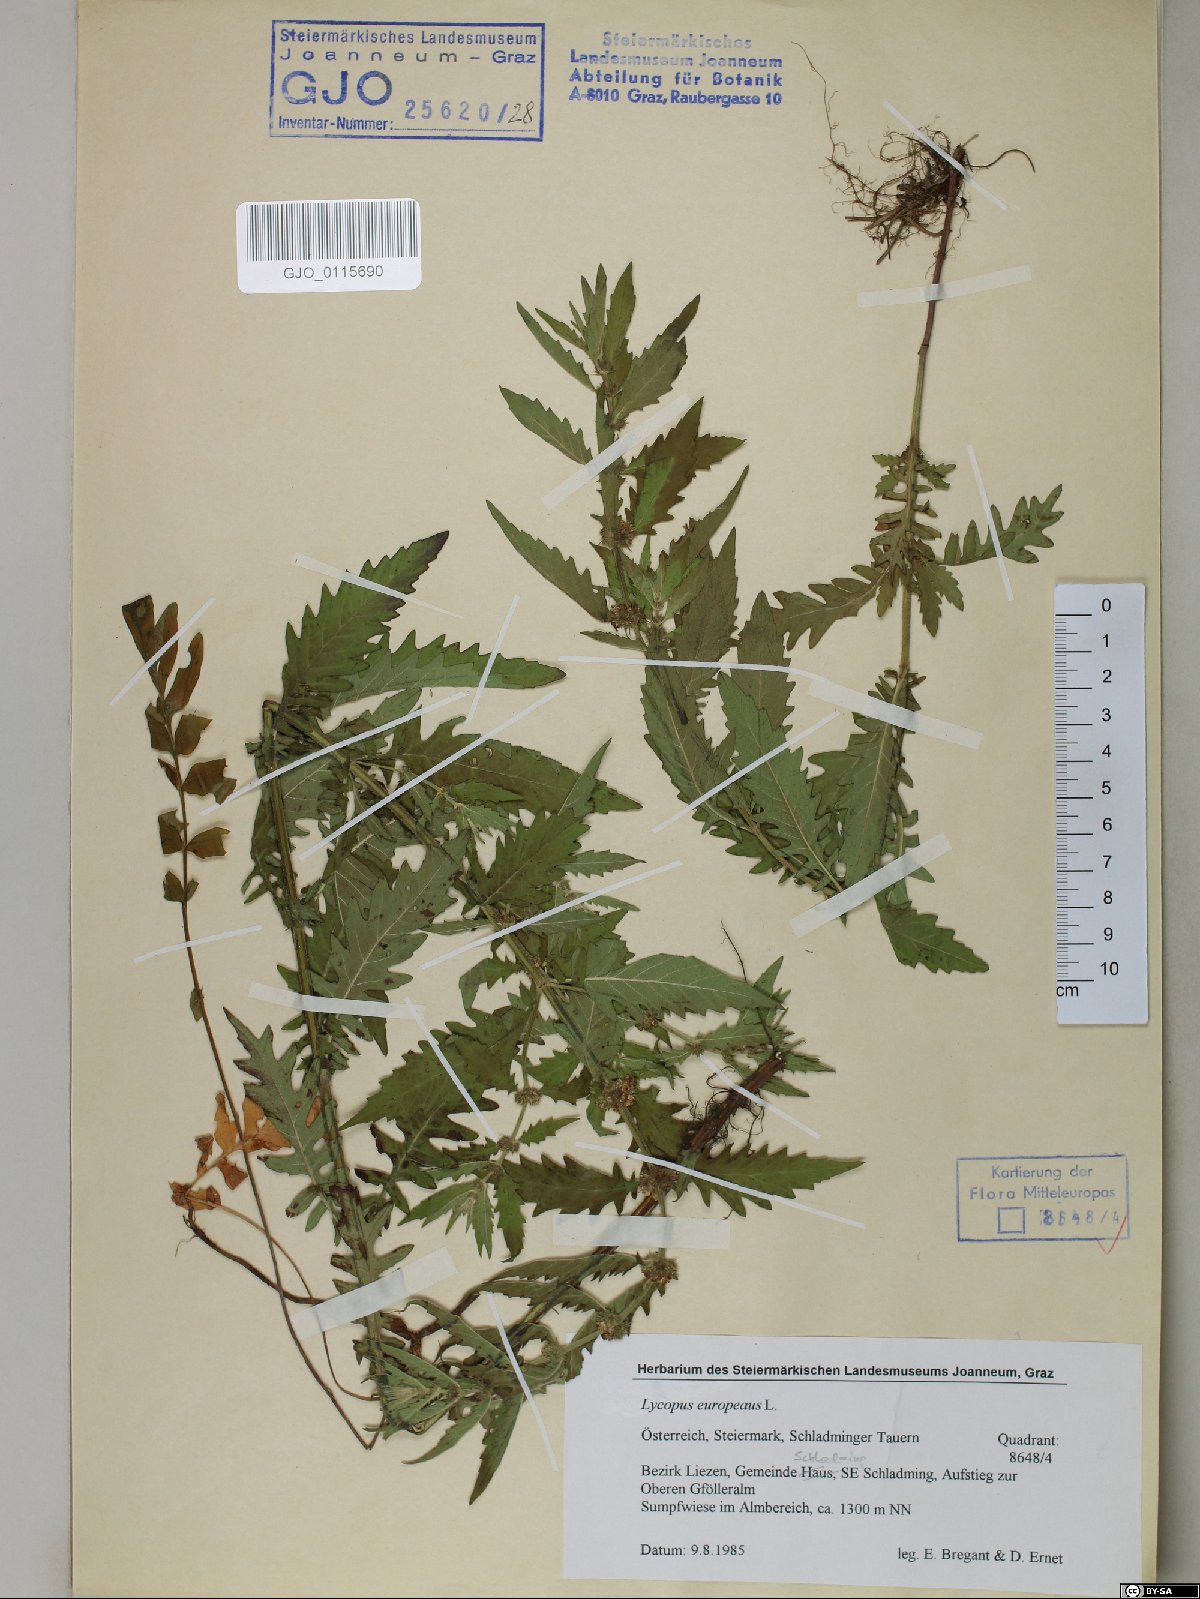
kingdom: Plantae
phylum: Tracheophyta
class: Magnoliopsida
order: Lamiales
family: Lamiaceae
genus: Lycopus
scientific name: Lycopus europaeus
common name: European bugleweed
